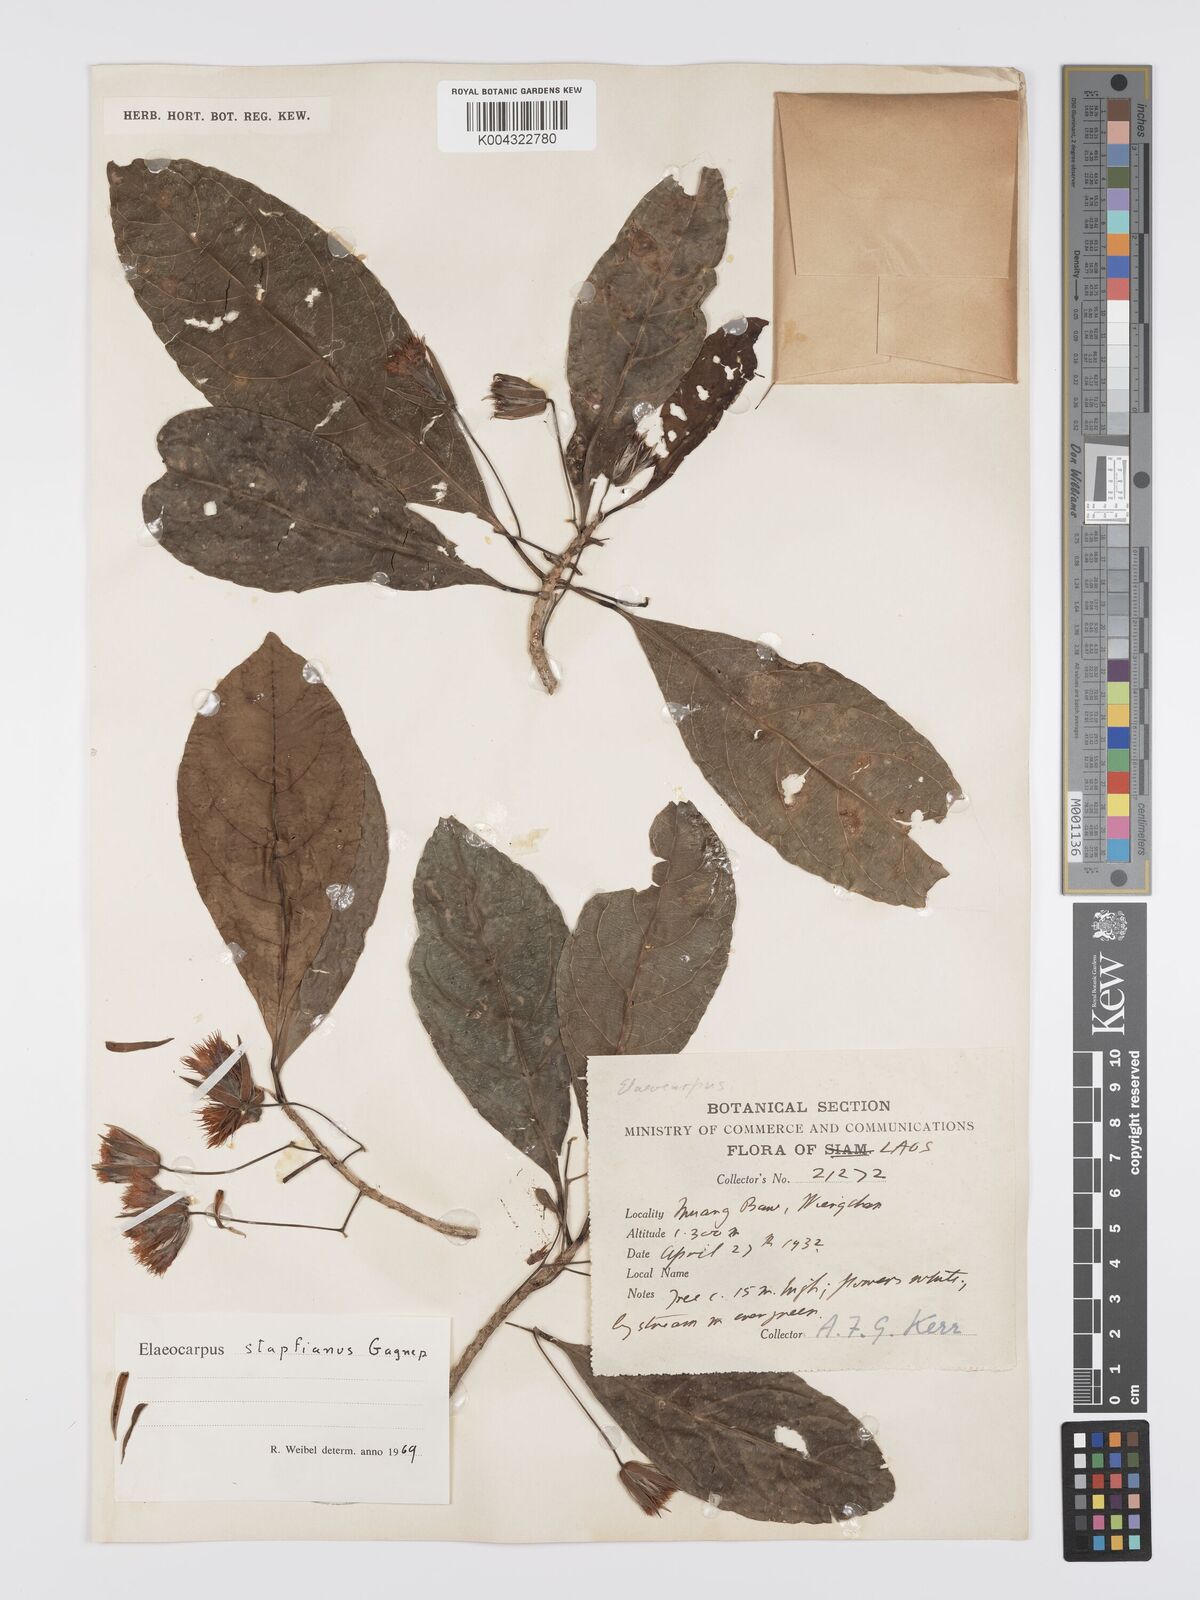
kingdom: Plantae
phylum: Tracheophyta
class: Magnoliopsida
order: Oxalidales
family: Elaeocarpaceae
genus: Elaeocarpus
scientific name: Elaeocarpus stapfianus
